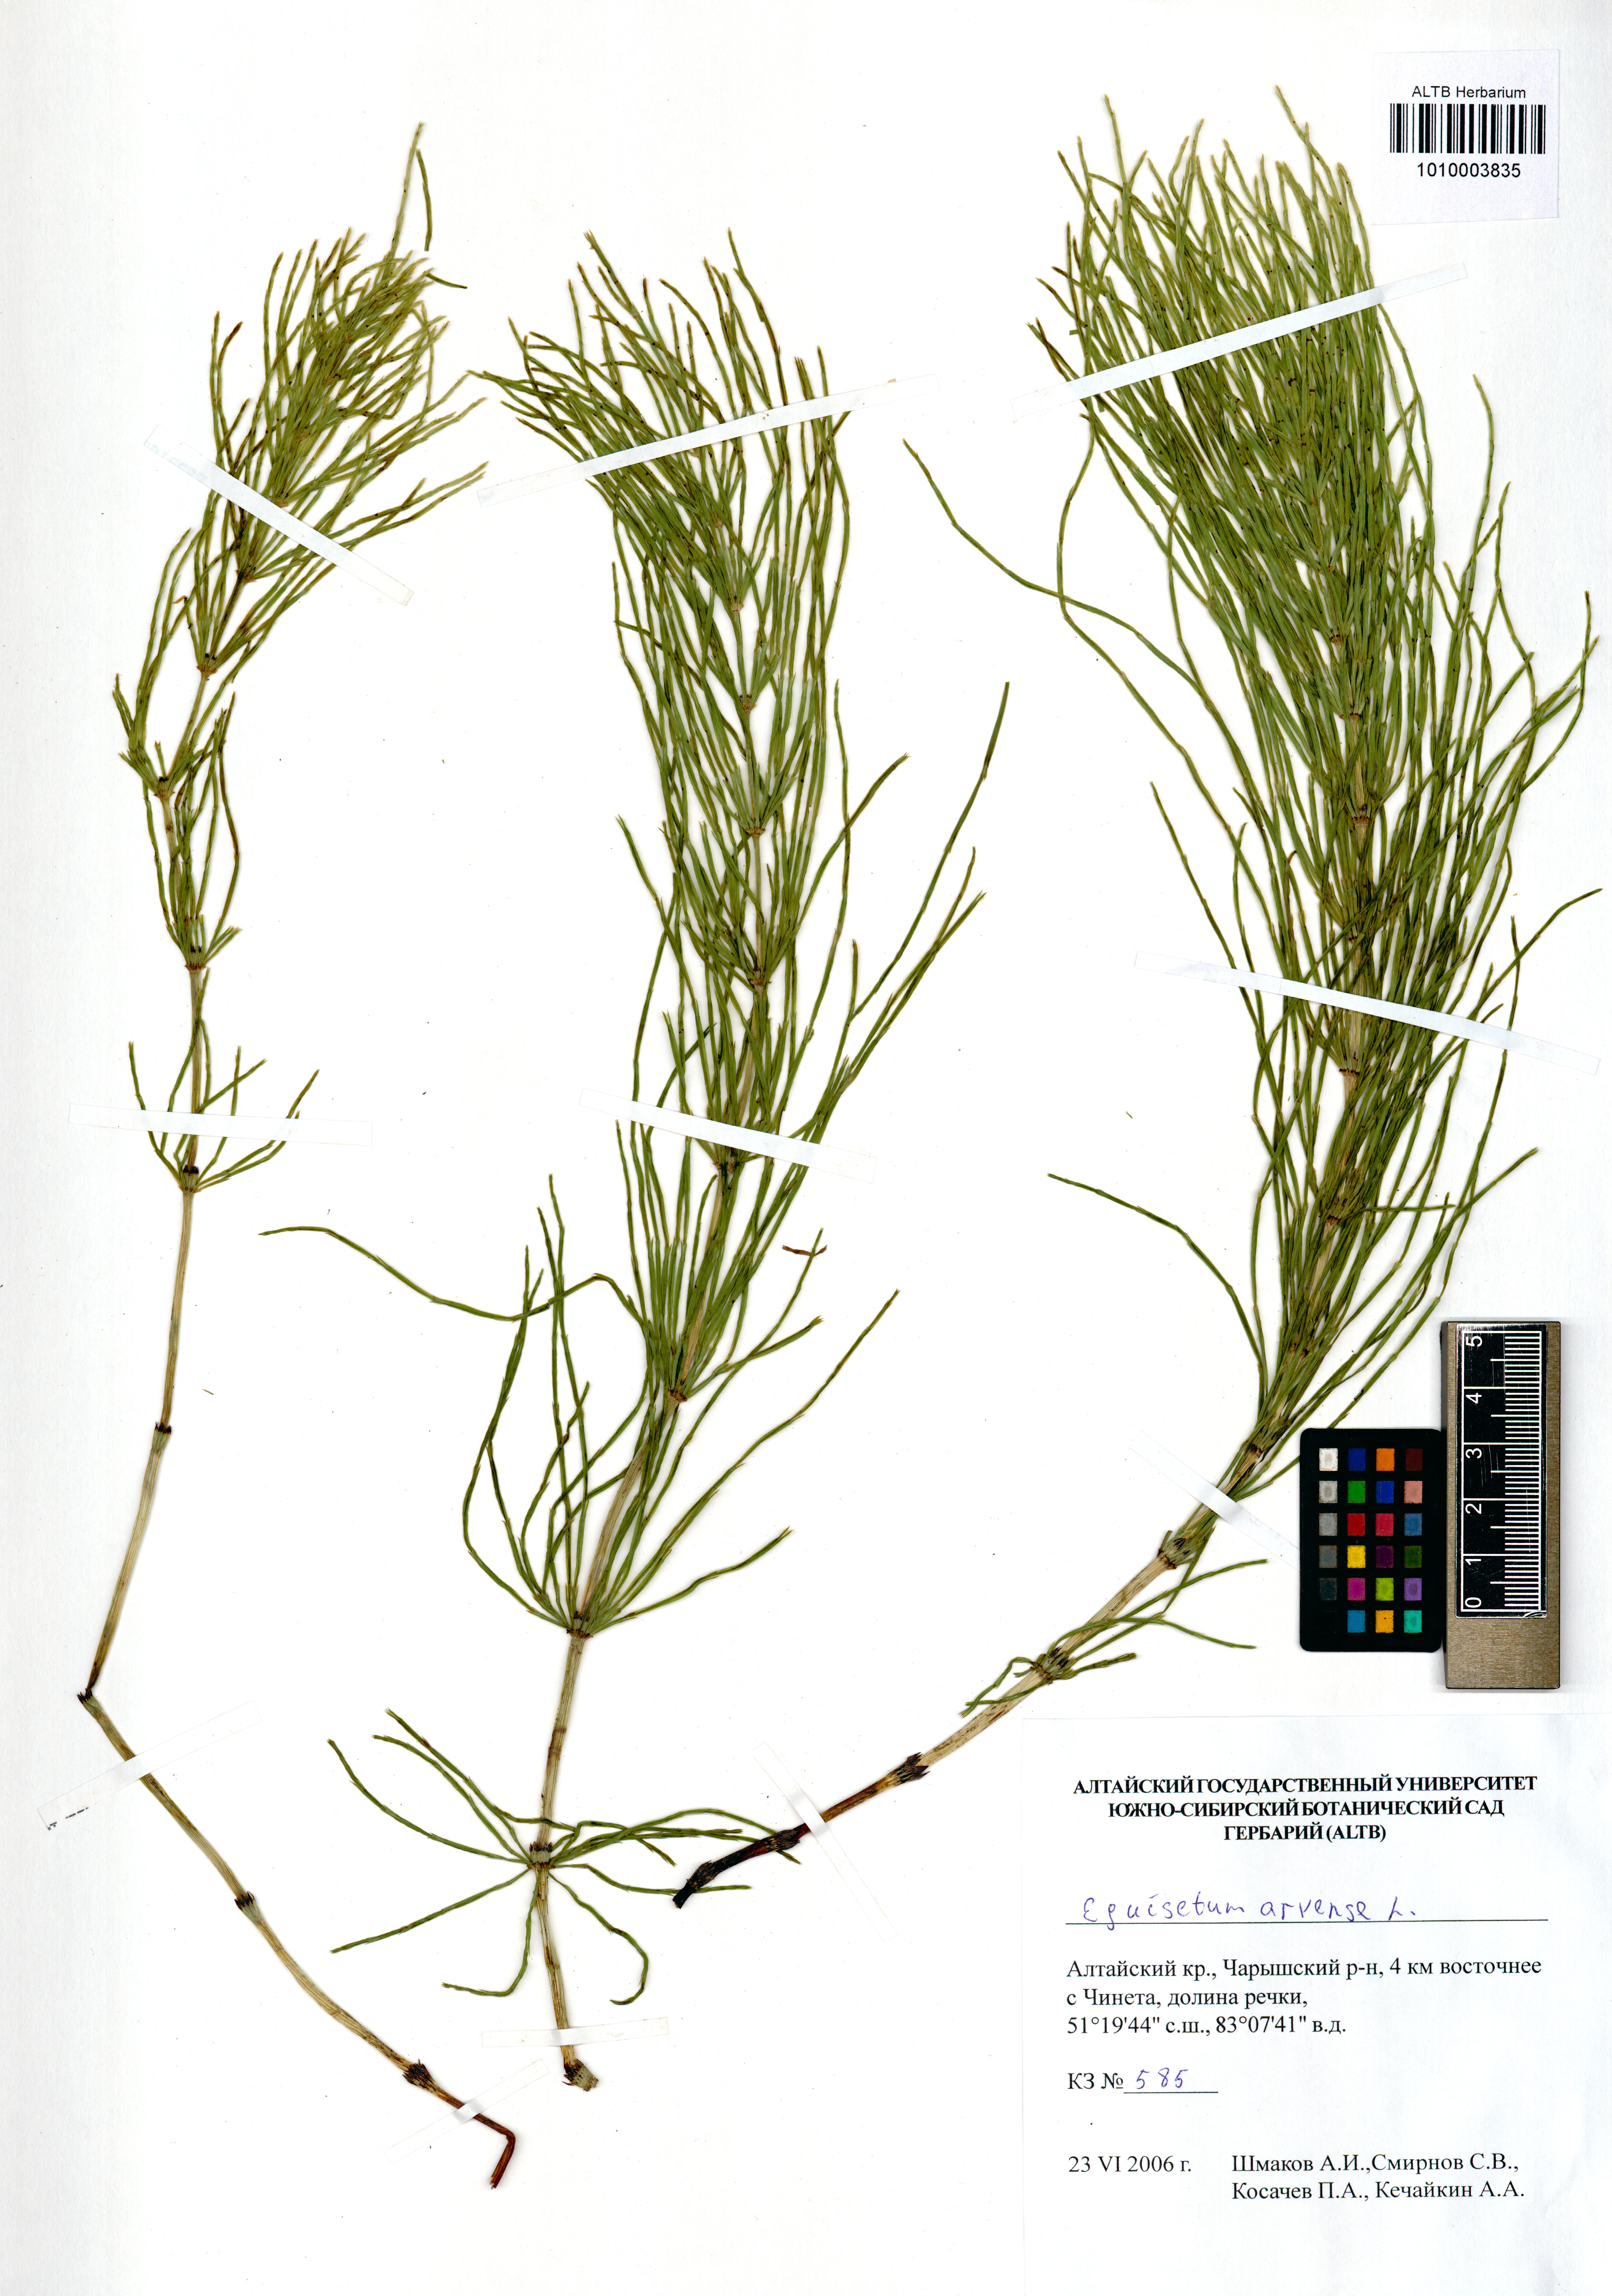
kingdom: Plantae
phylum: Tracheophyta
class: Polypodiopsida
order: Equisetales
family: Equisetaceae
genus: Equisetum
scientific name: Equisetum arvense
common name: Field horsetail
